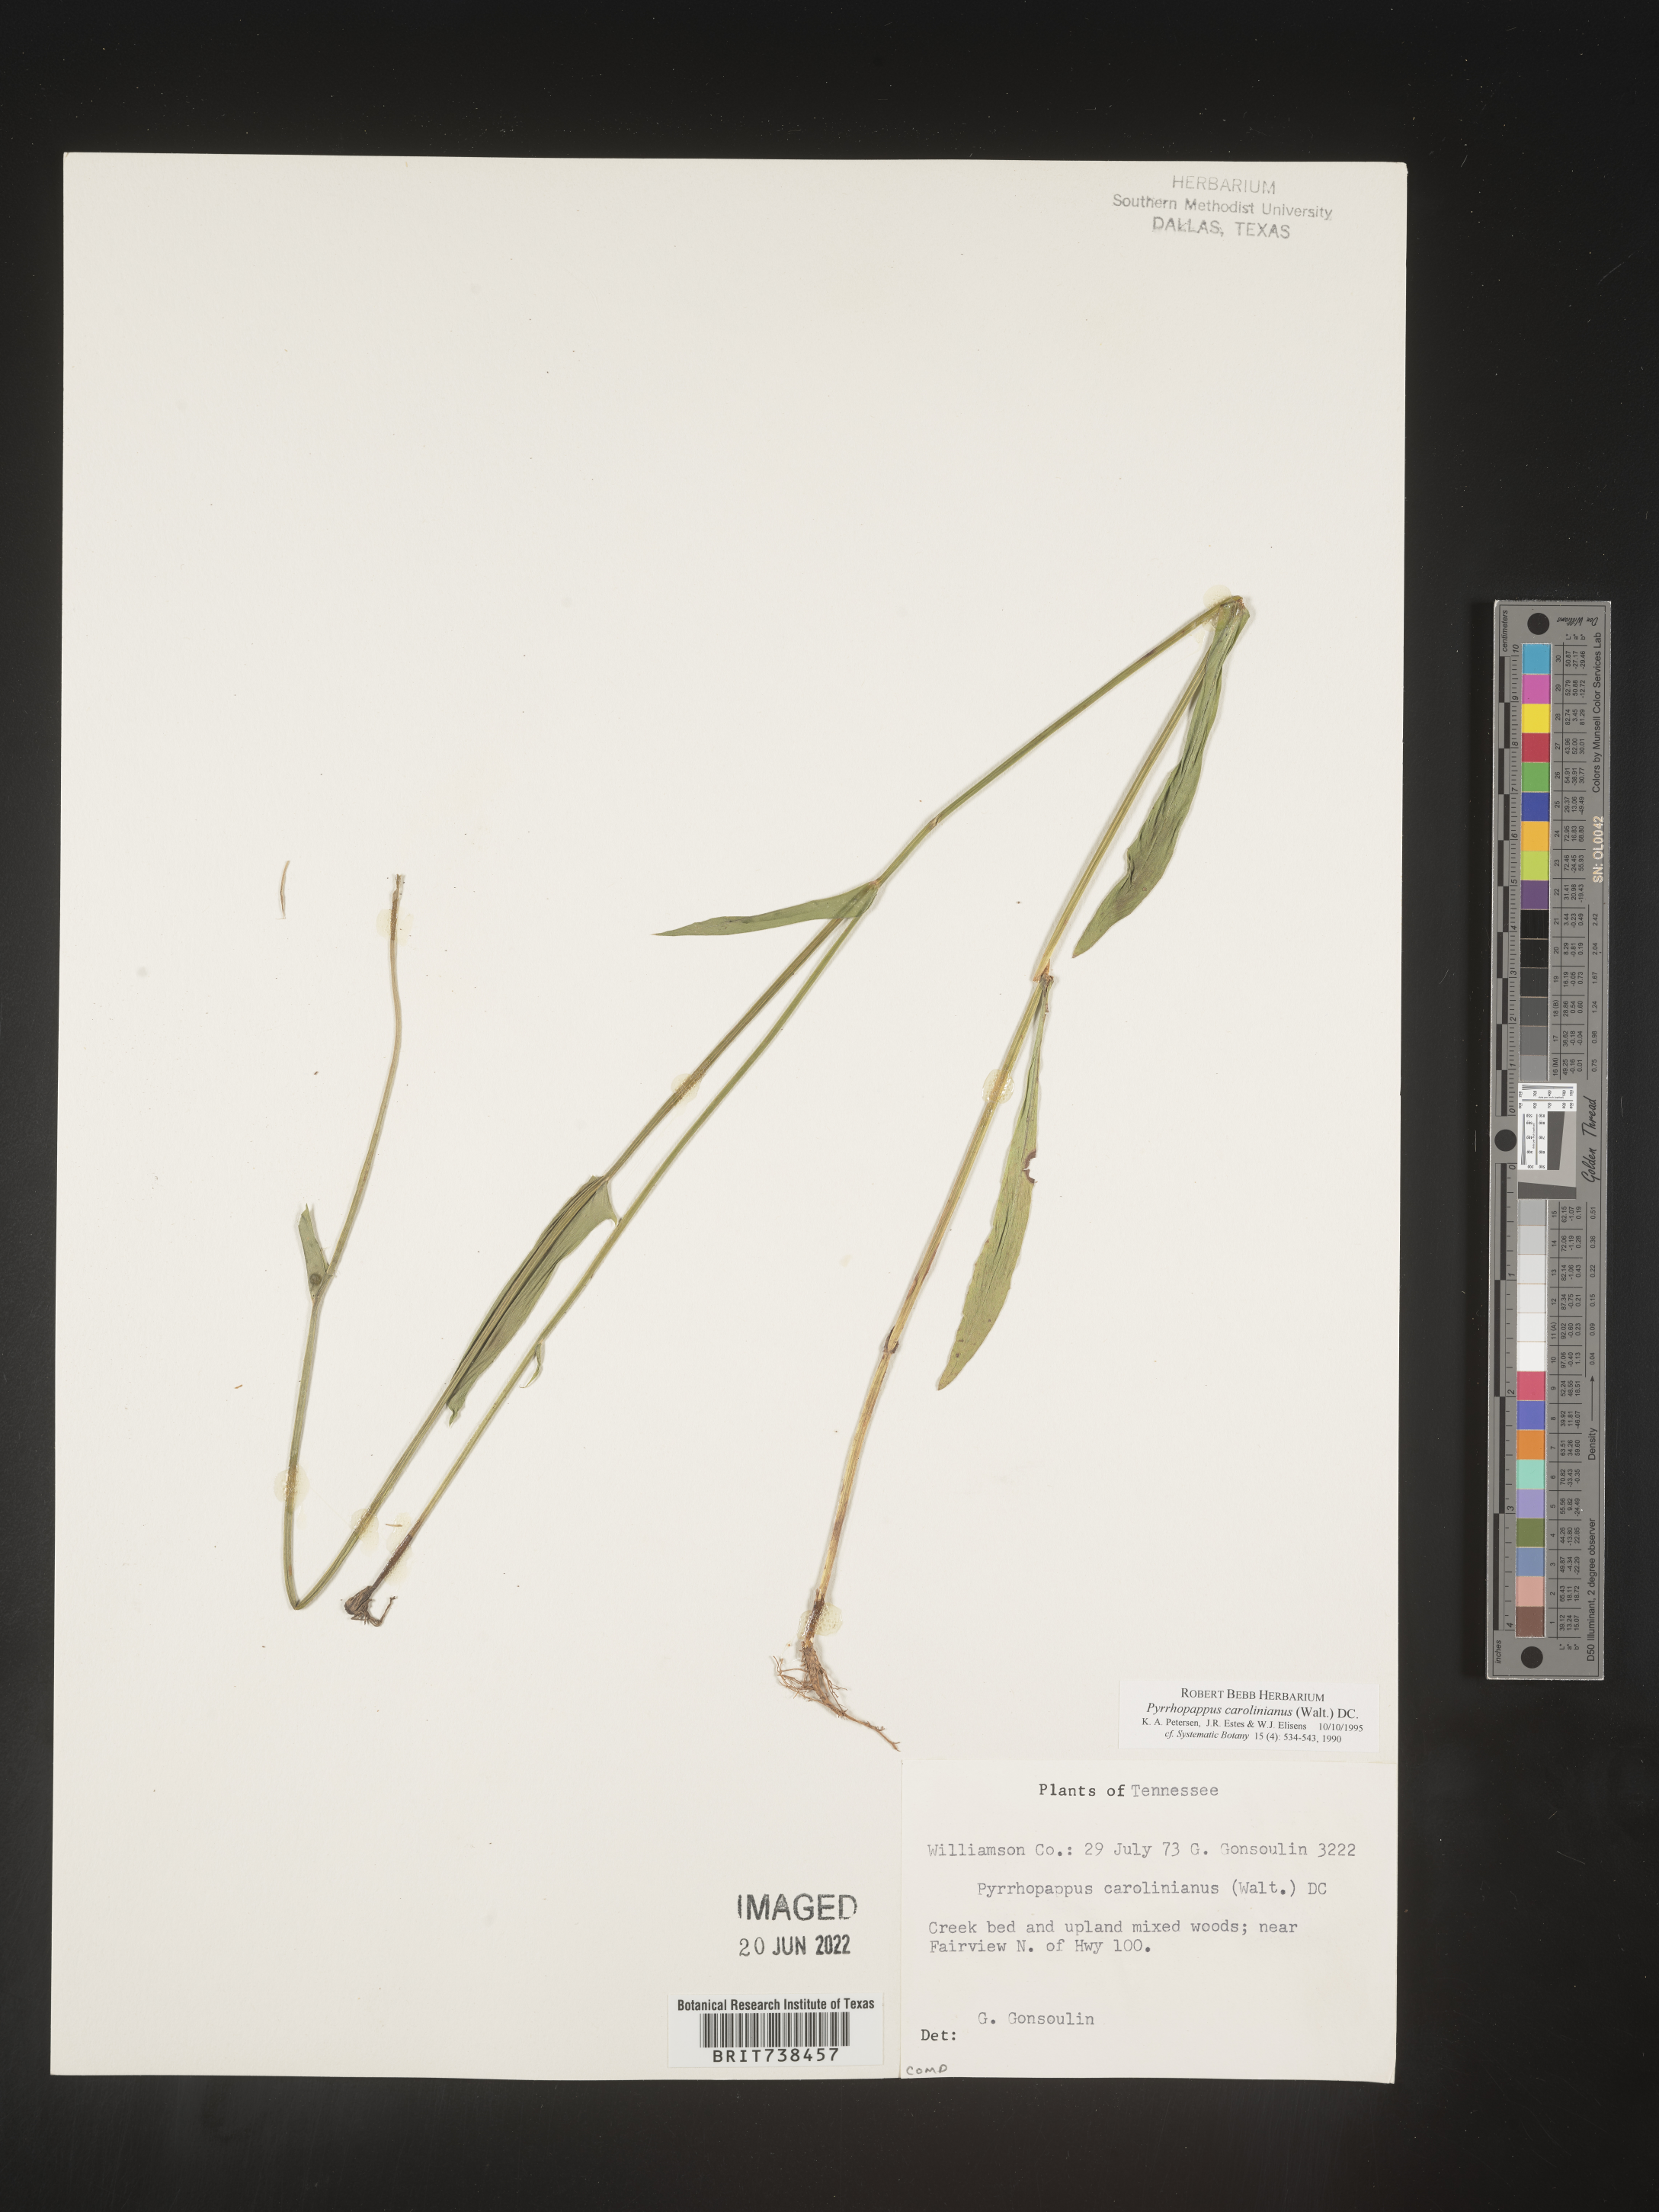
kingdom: Plantae
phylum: Tracheophyta
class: Magnoliopsida
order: Asterales
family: Asteraceae
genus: Pyrrhopappus
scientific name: Pyrrhopappus carolinianus
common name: Carolina desert-chicory
